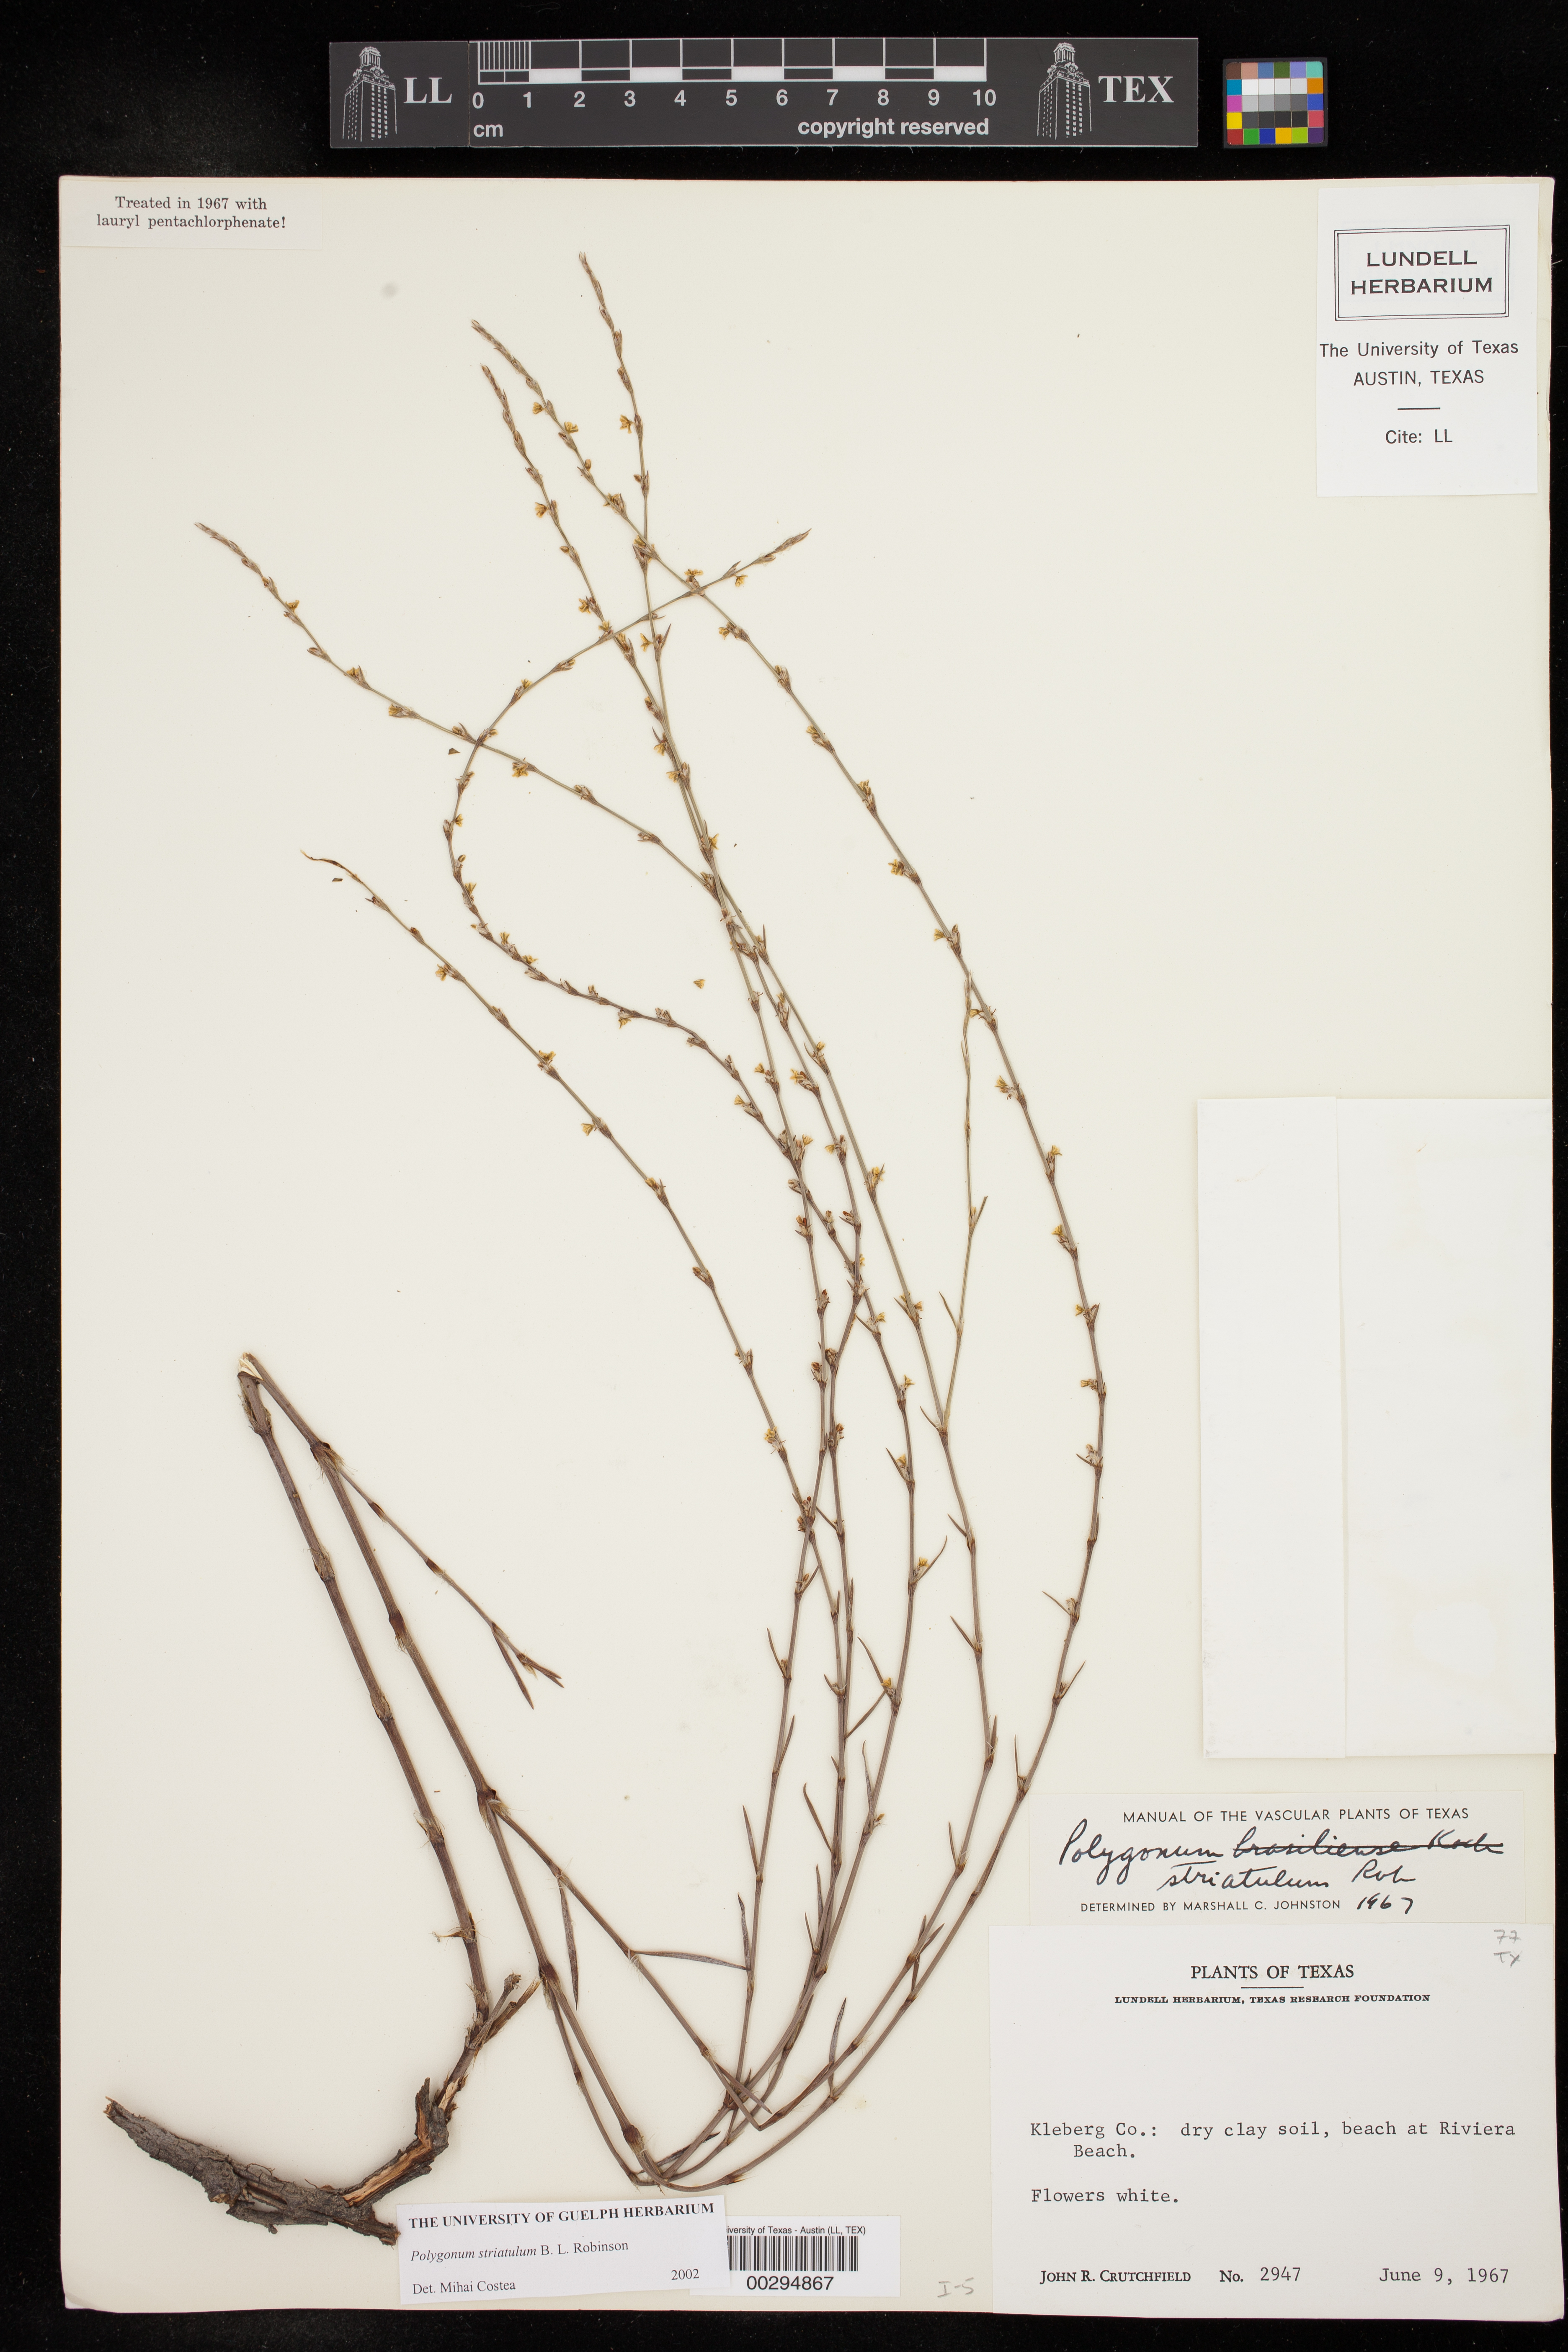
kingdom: Plantae
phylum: Tracheophyta
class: Magnoliopsida
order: Caryophyllales
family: Polygonaceae
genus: Polygonum
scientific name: Polygonum striatulum
